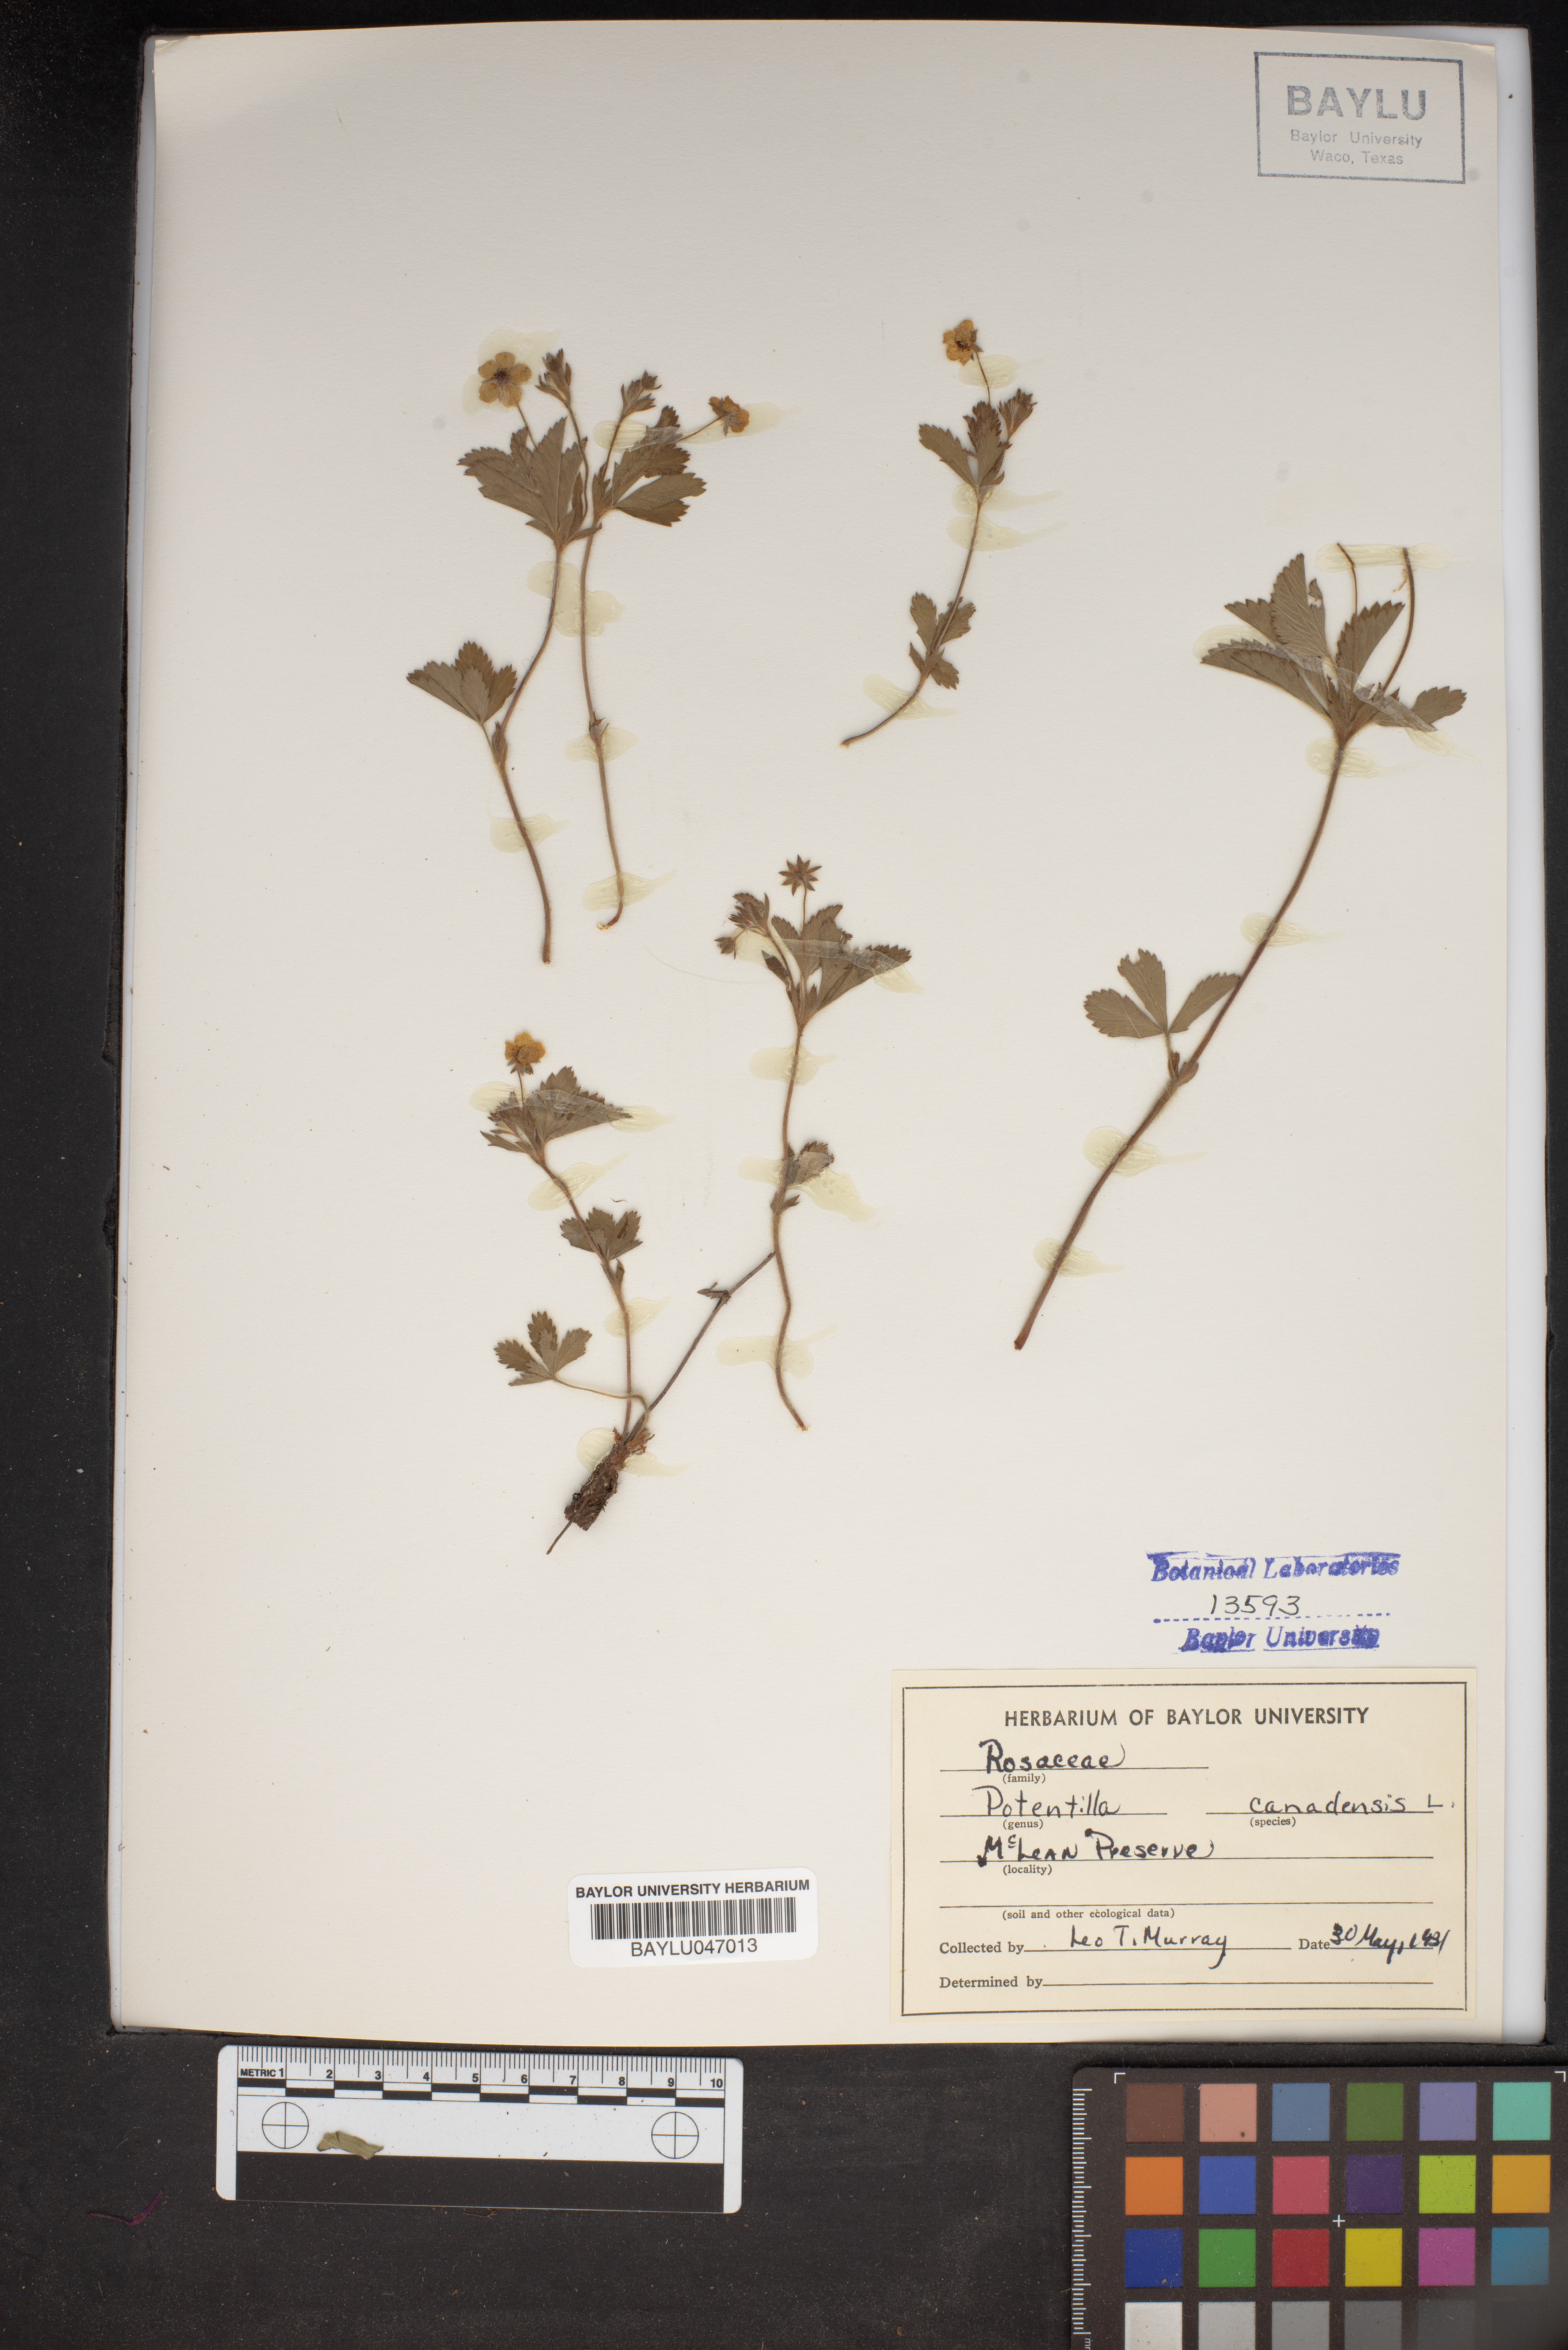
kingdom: Plantae
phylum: Tracheophyta
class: Magnoliopsida
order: Rosales
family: Rosaceae
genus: Potentilla
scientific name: Potentilla canadensis
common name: Canada cinquefoil
